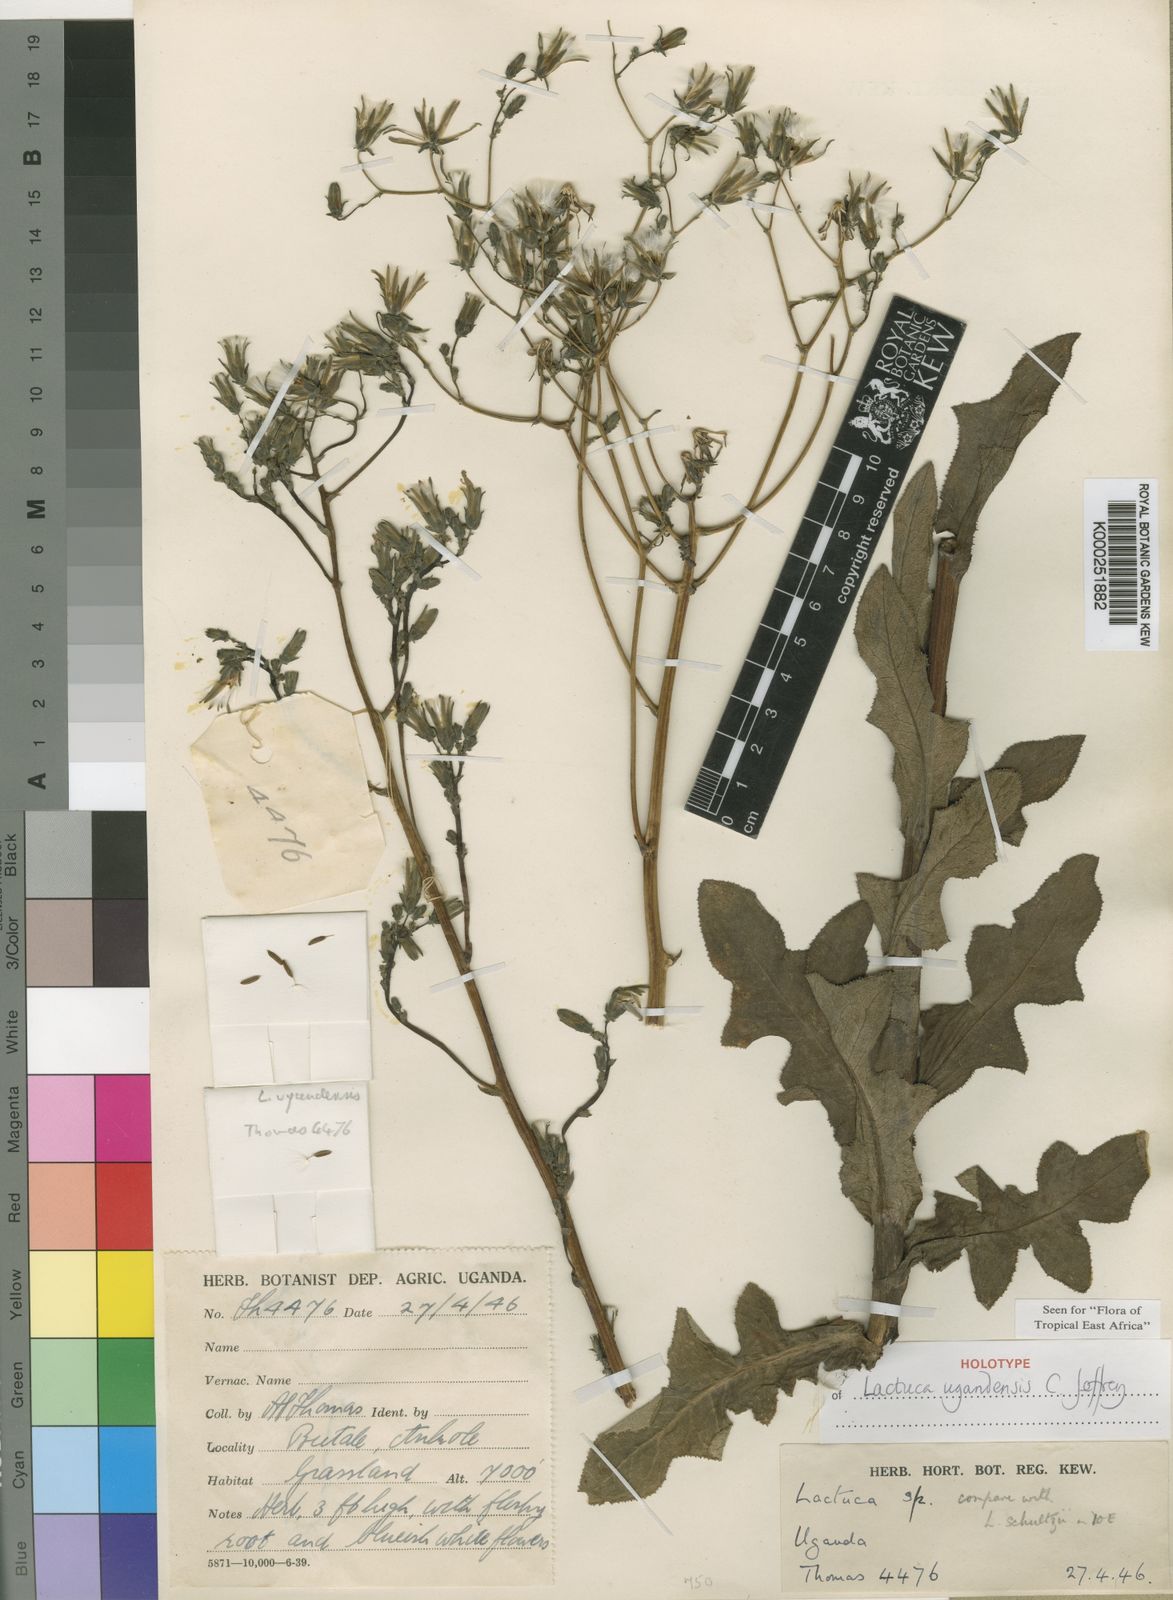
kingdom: Plantae
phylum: Tracheophyta
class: Magnoliopsida
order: Asterales
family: Asteraceae
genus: Lactuca
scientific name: Lactuca ugandensis
